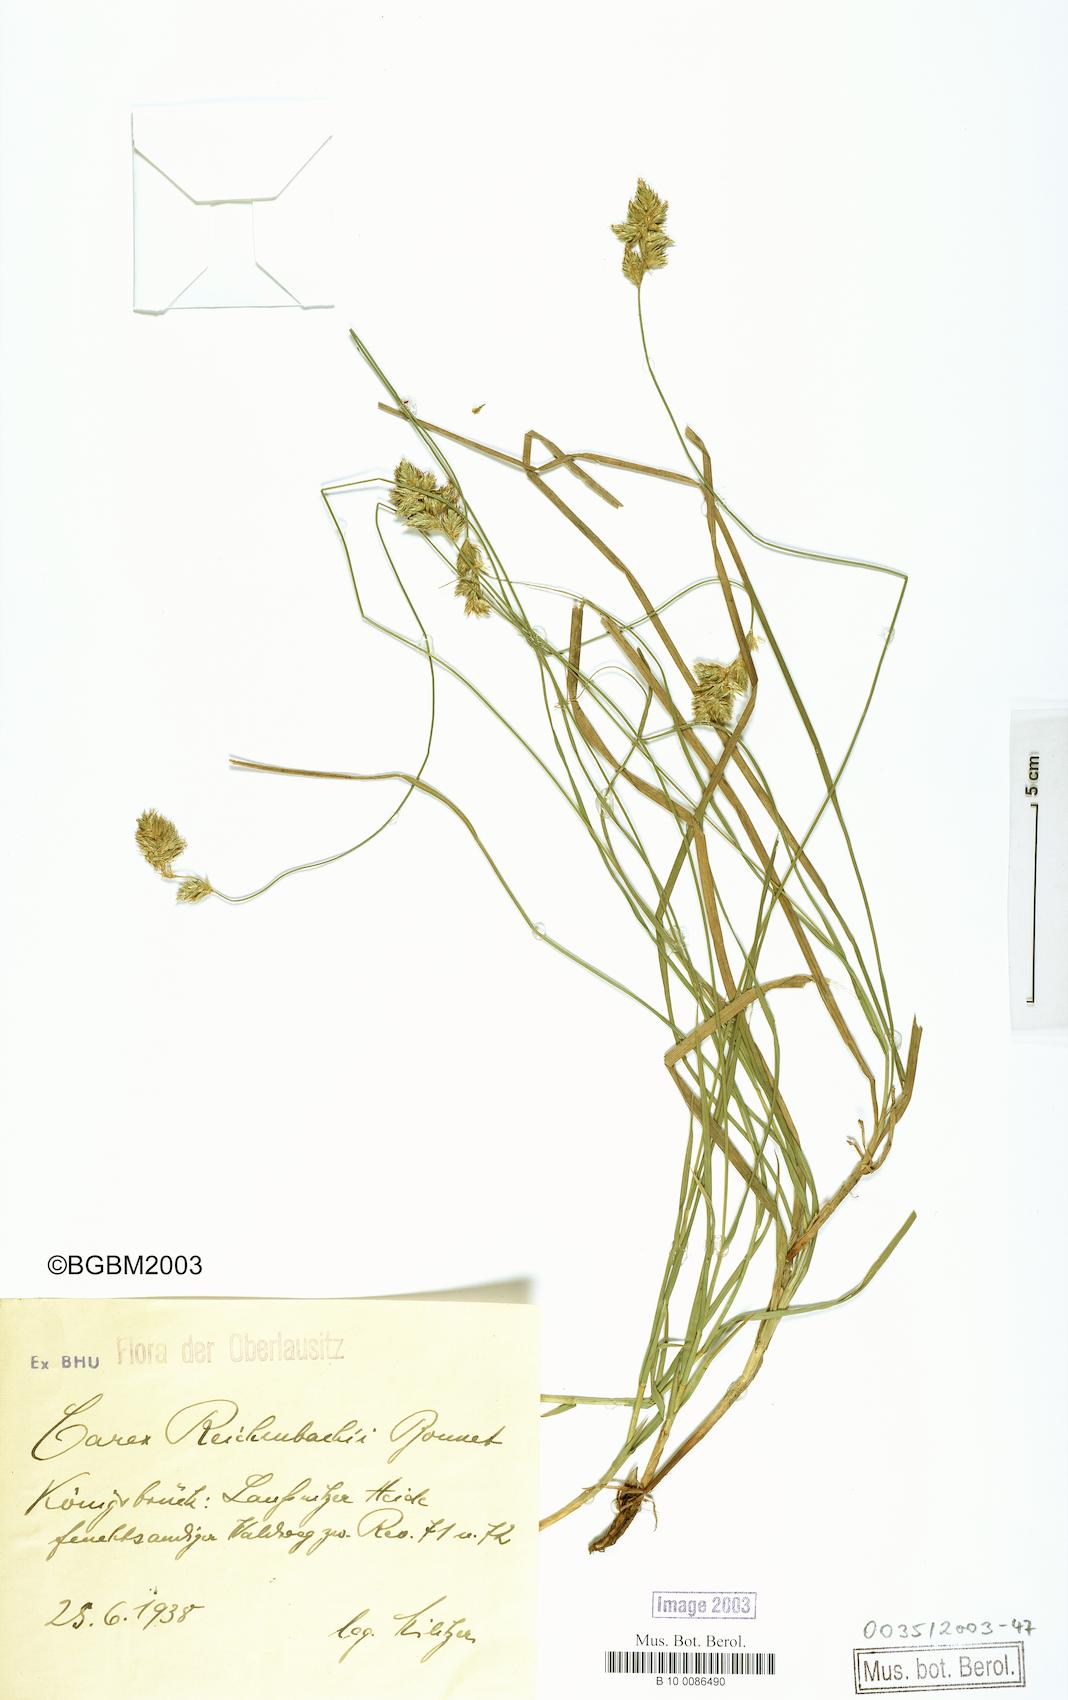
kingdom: Plantae
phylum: Tracheophyta
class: Liliopsida
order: Poales
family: Cyperaceae
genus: Carex
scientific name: Carex reichenbachii
